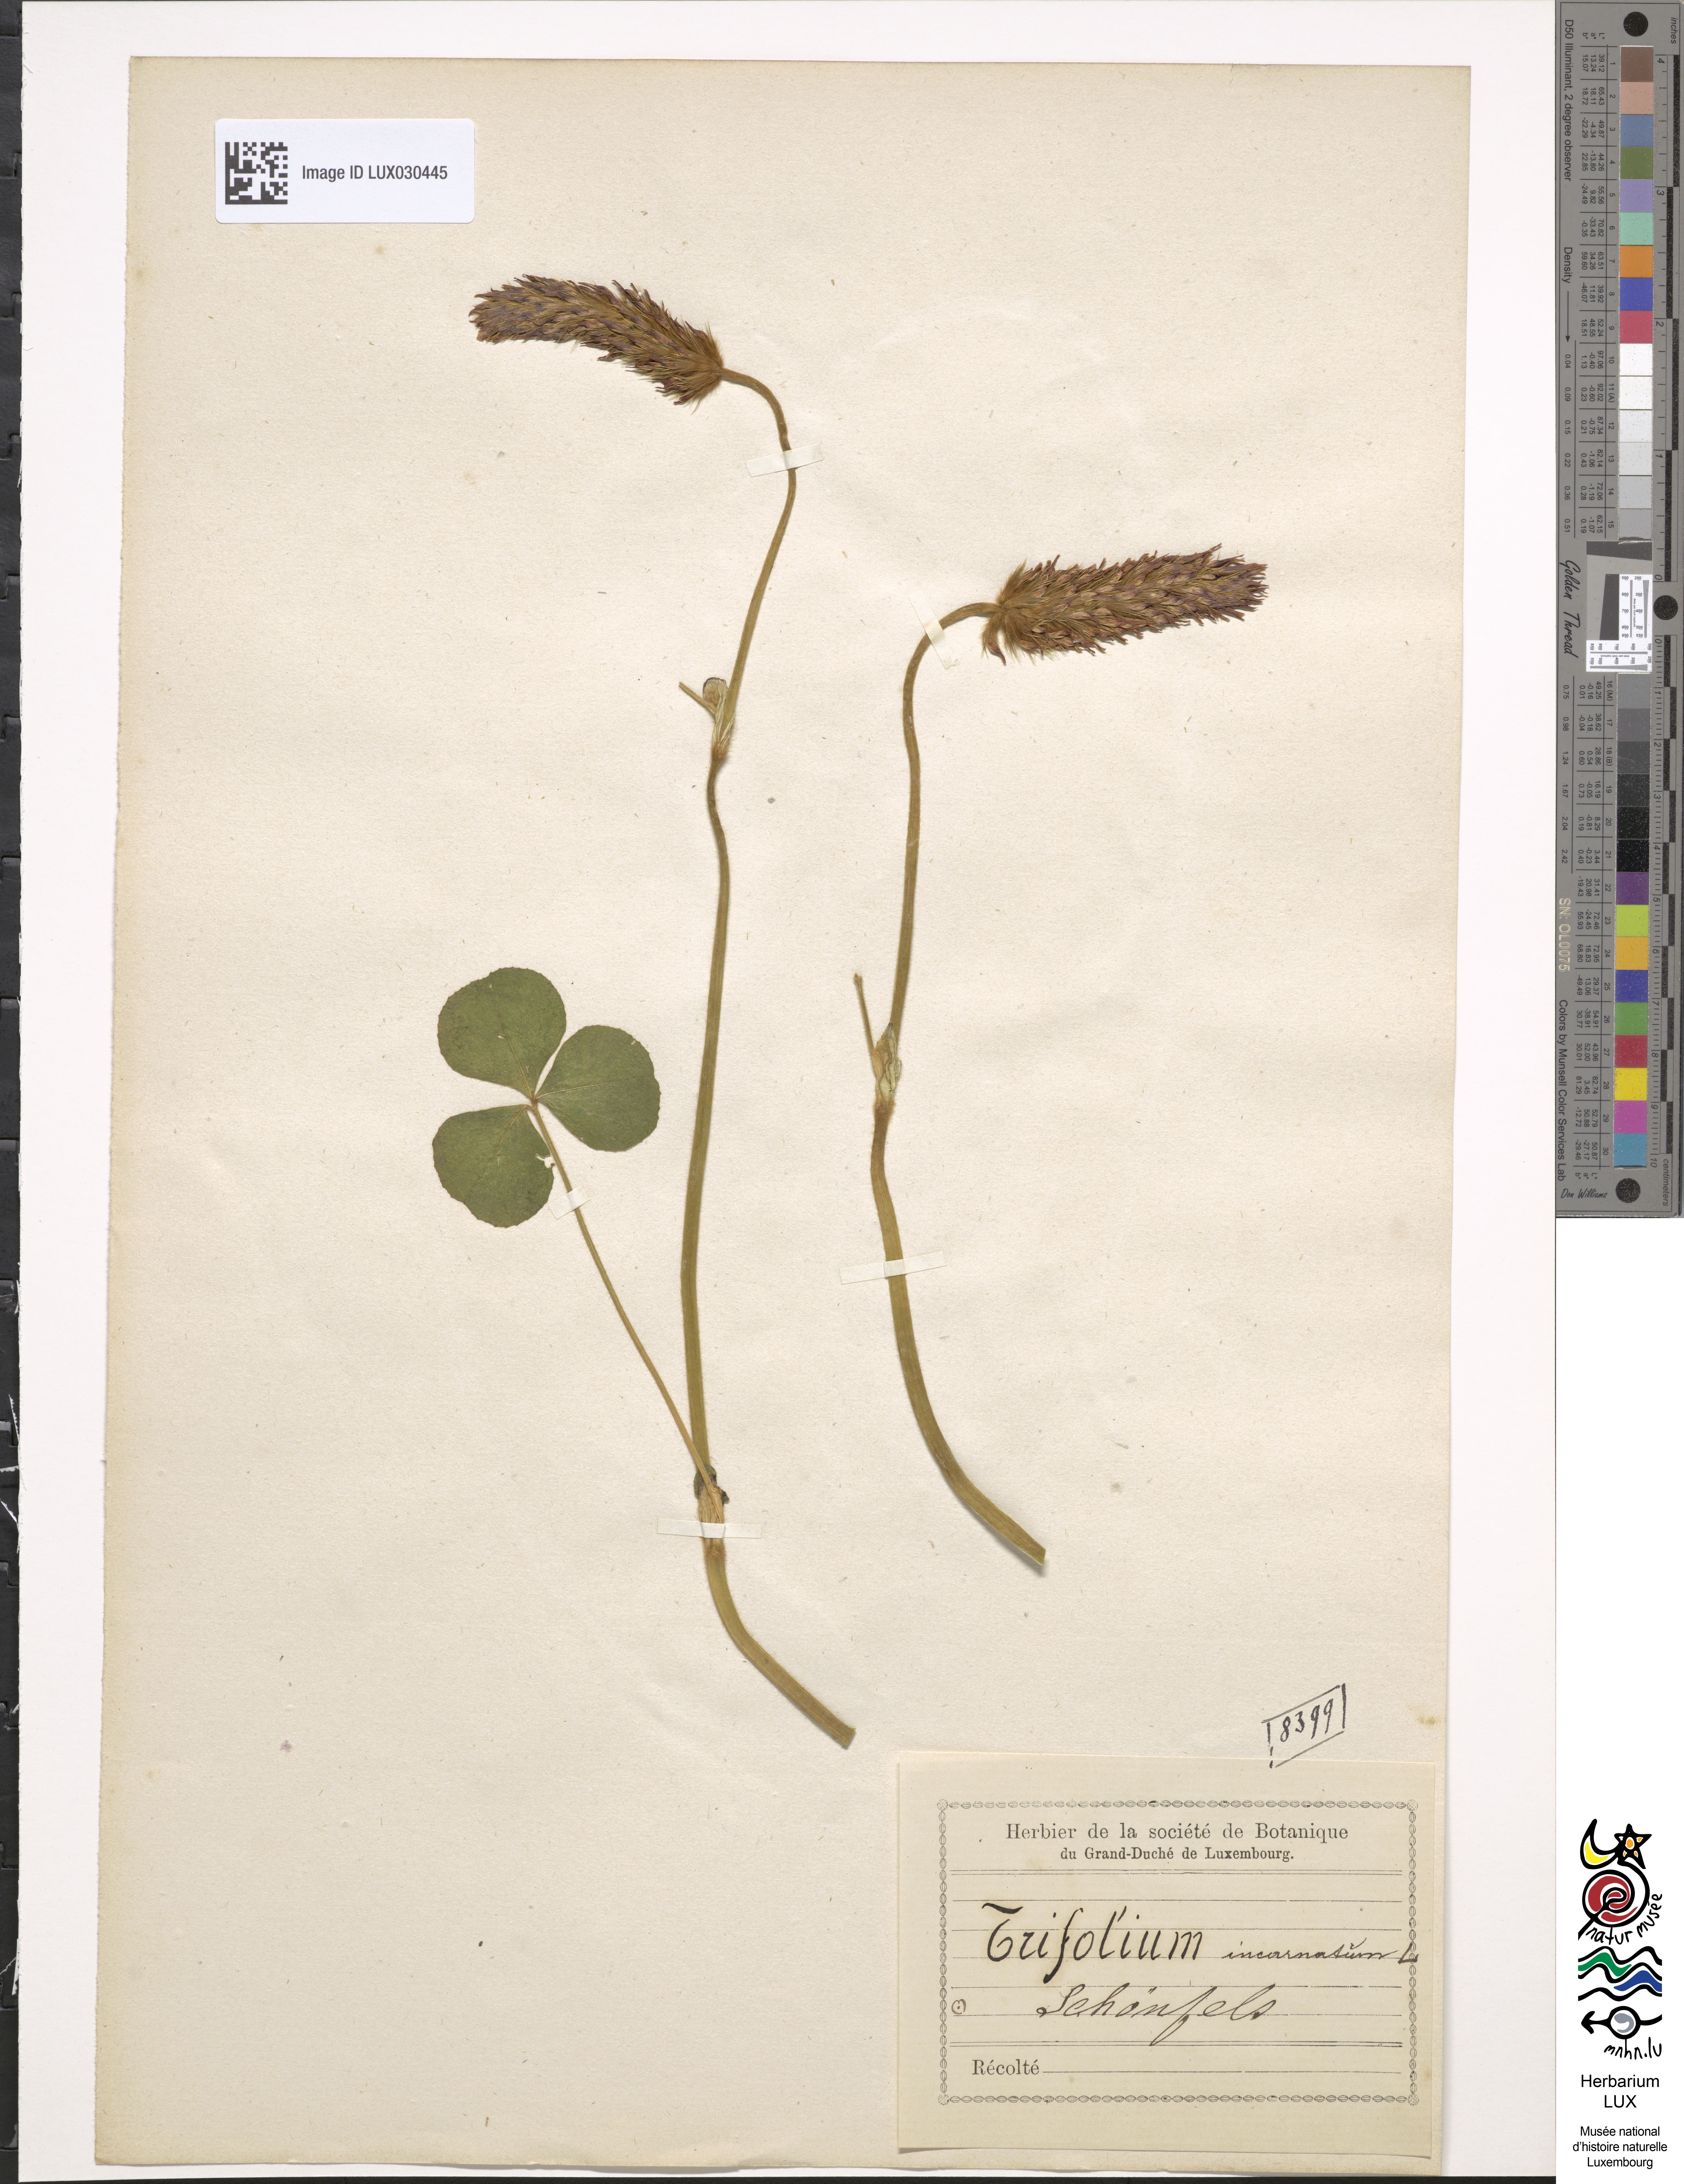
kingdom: Plantae
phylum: Tracheophyta
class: Magnoliopsida
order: Fabales
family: Fabaceae
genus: Trifolium
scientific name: Trifolium incarnatum
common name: Crimson clover
